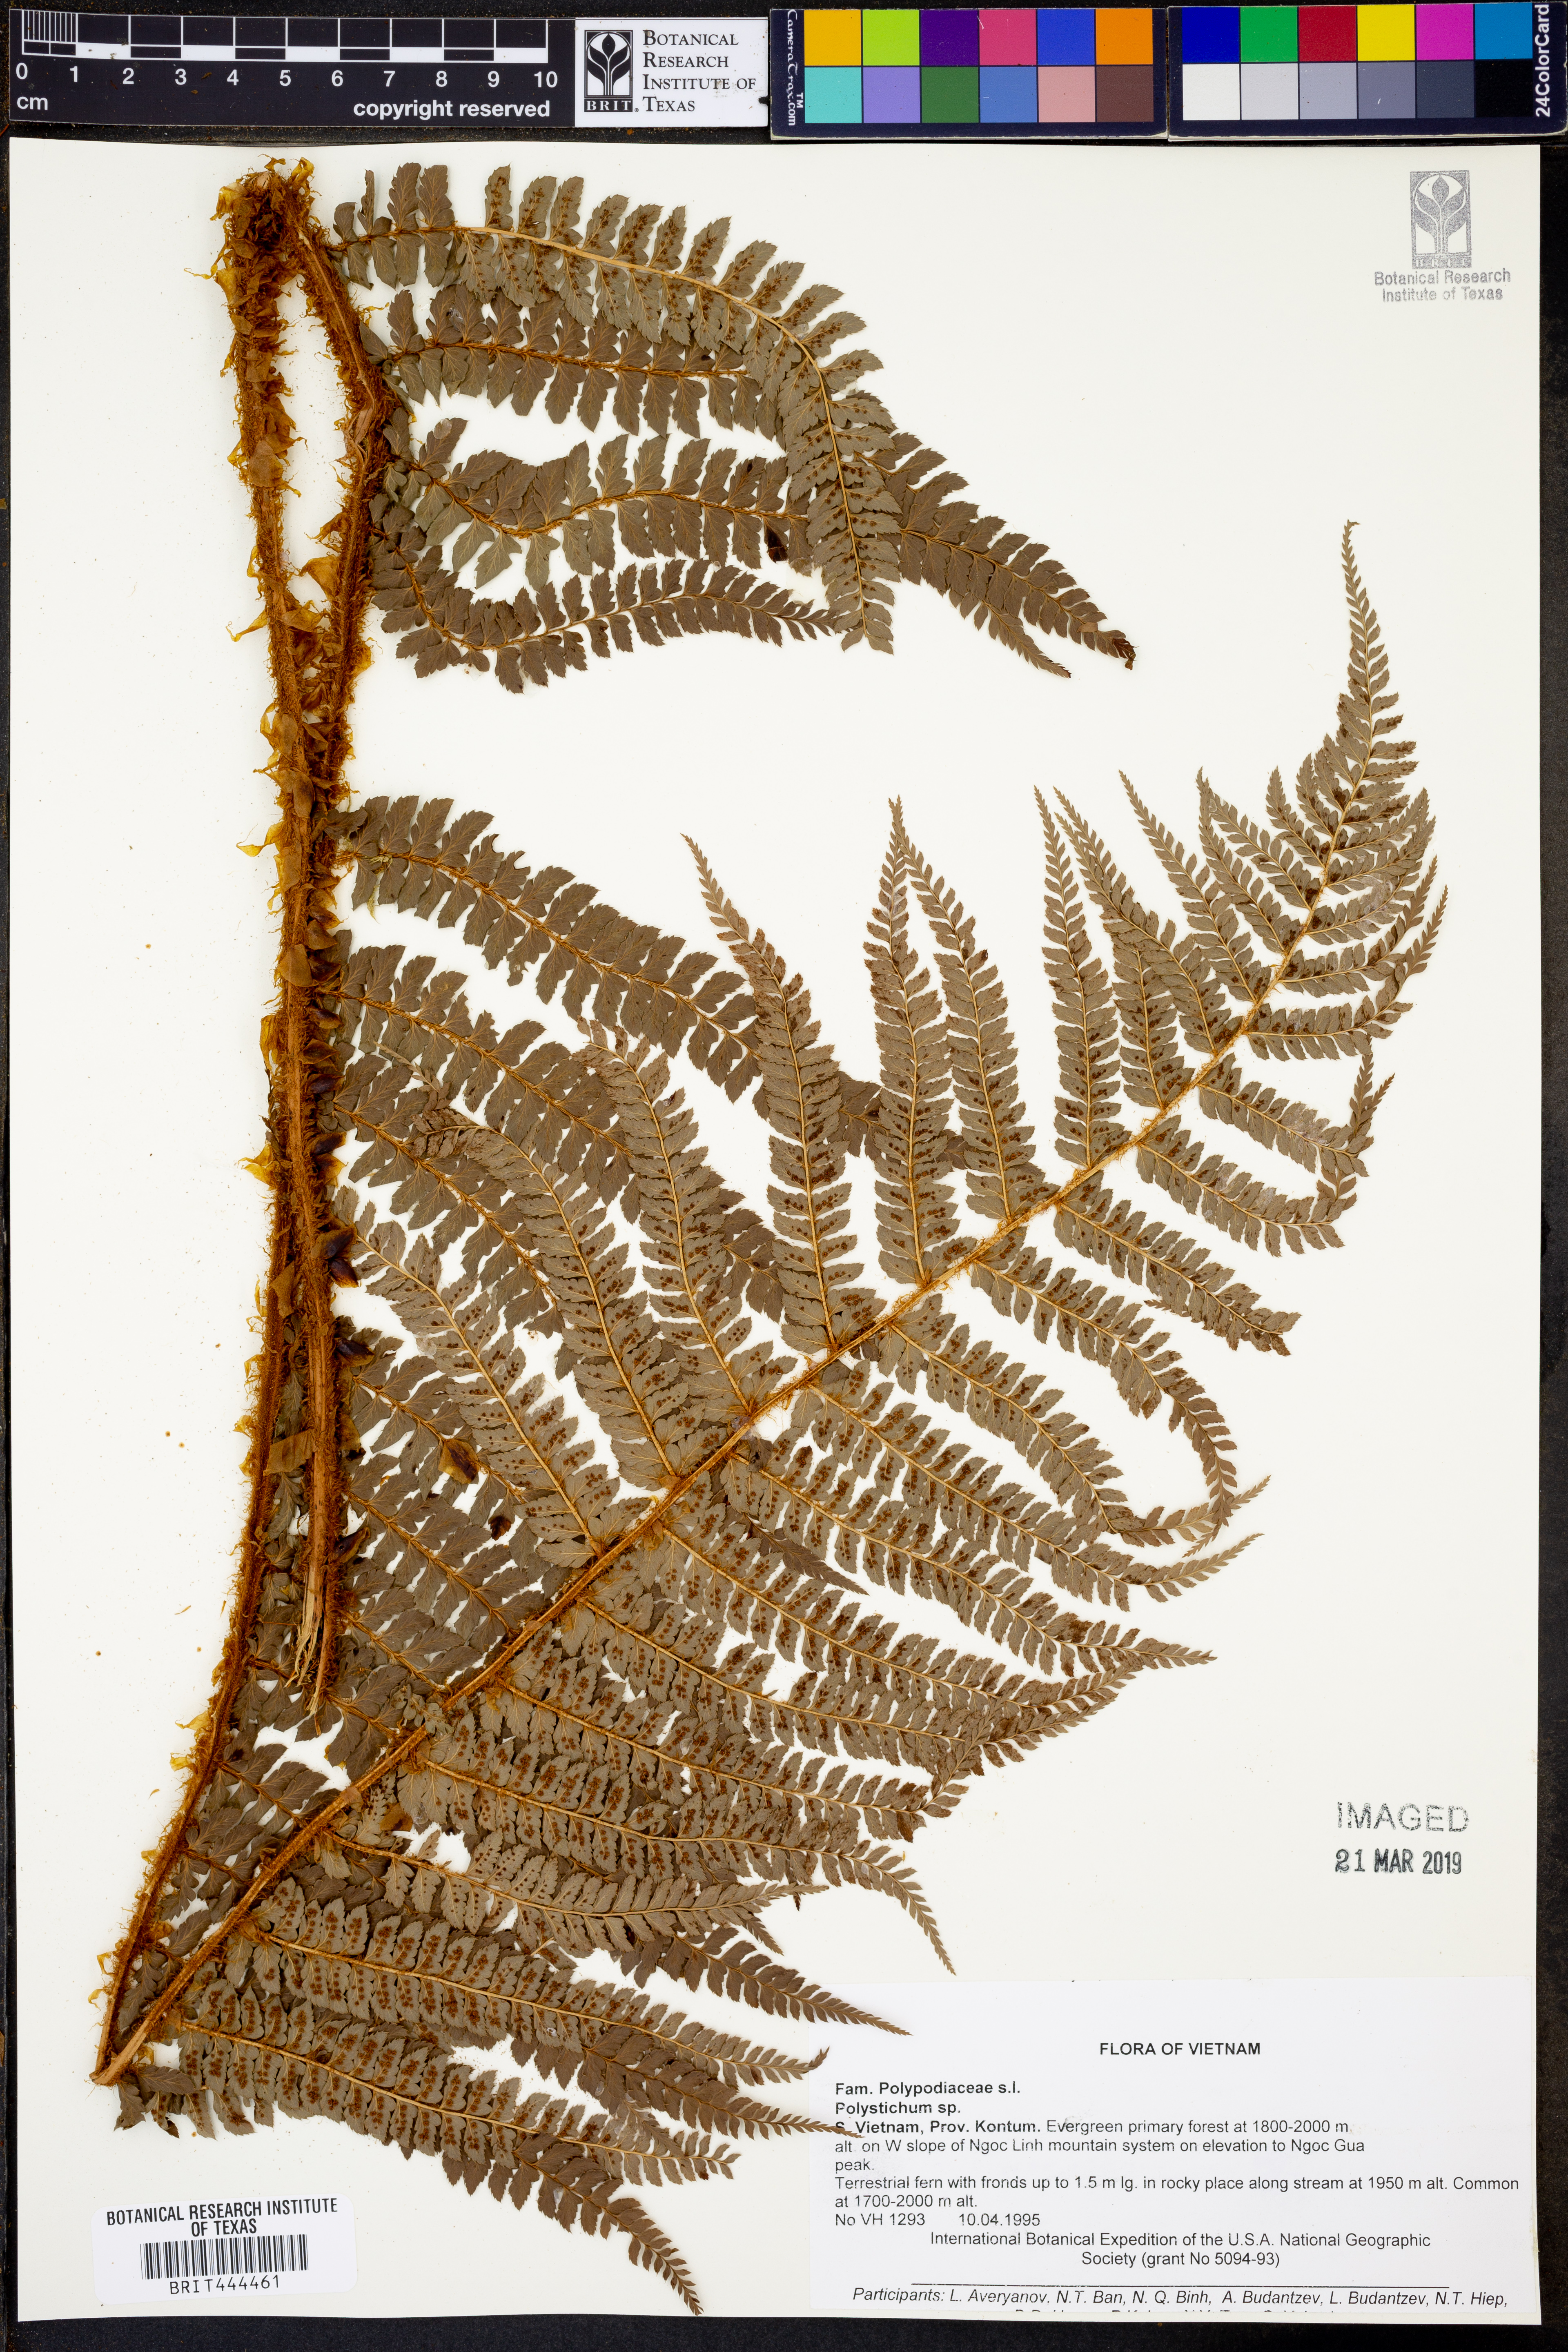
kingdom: Plantae
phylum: Tracheophyta
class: Polypodiopsida
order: Polypodiales
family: Dryopteridaceae
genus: Polystichum
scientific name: Polystichum
